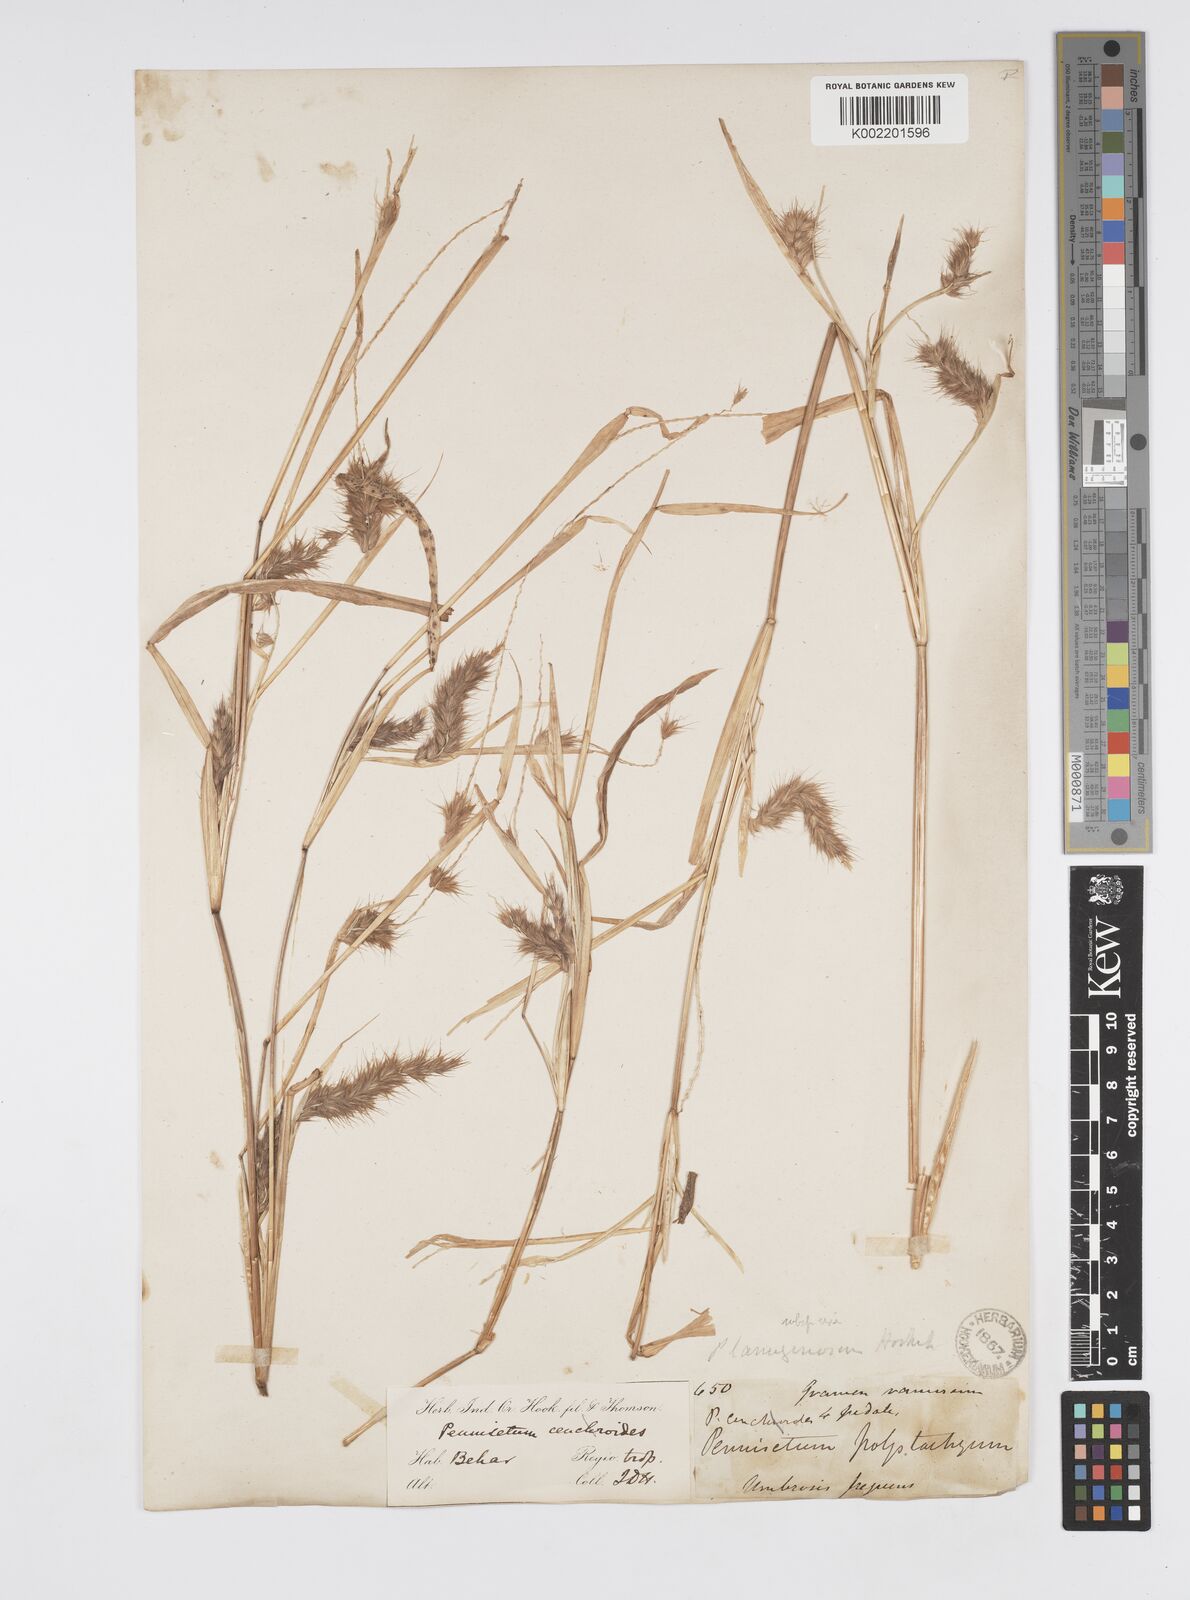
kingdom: Plantae
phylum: Tracheophyta
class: Liliopsida
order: Poales
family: Poaceae
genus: Cenchrus
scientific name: Cenchrus pedicellatus
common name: Hairy fountain grass
